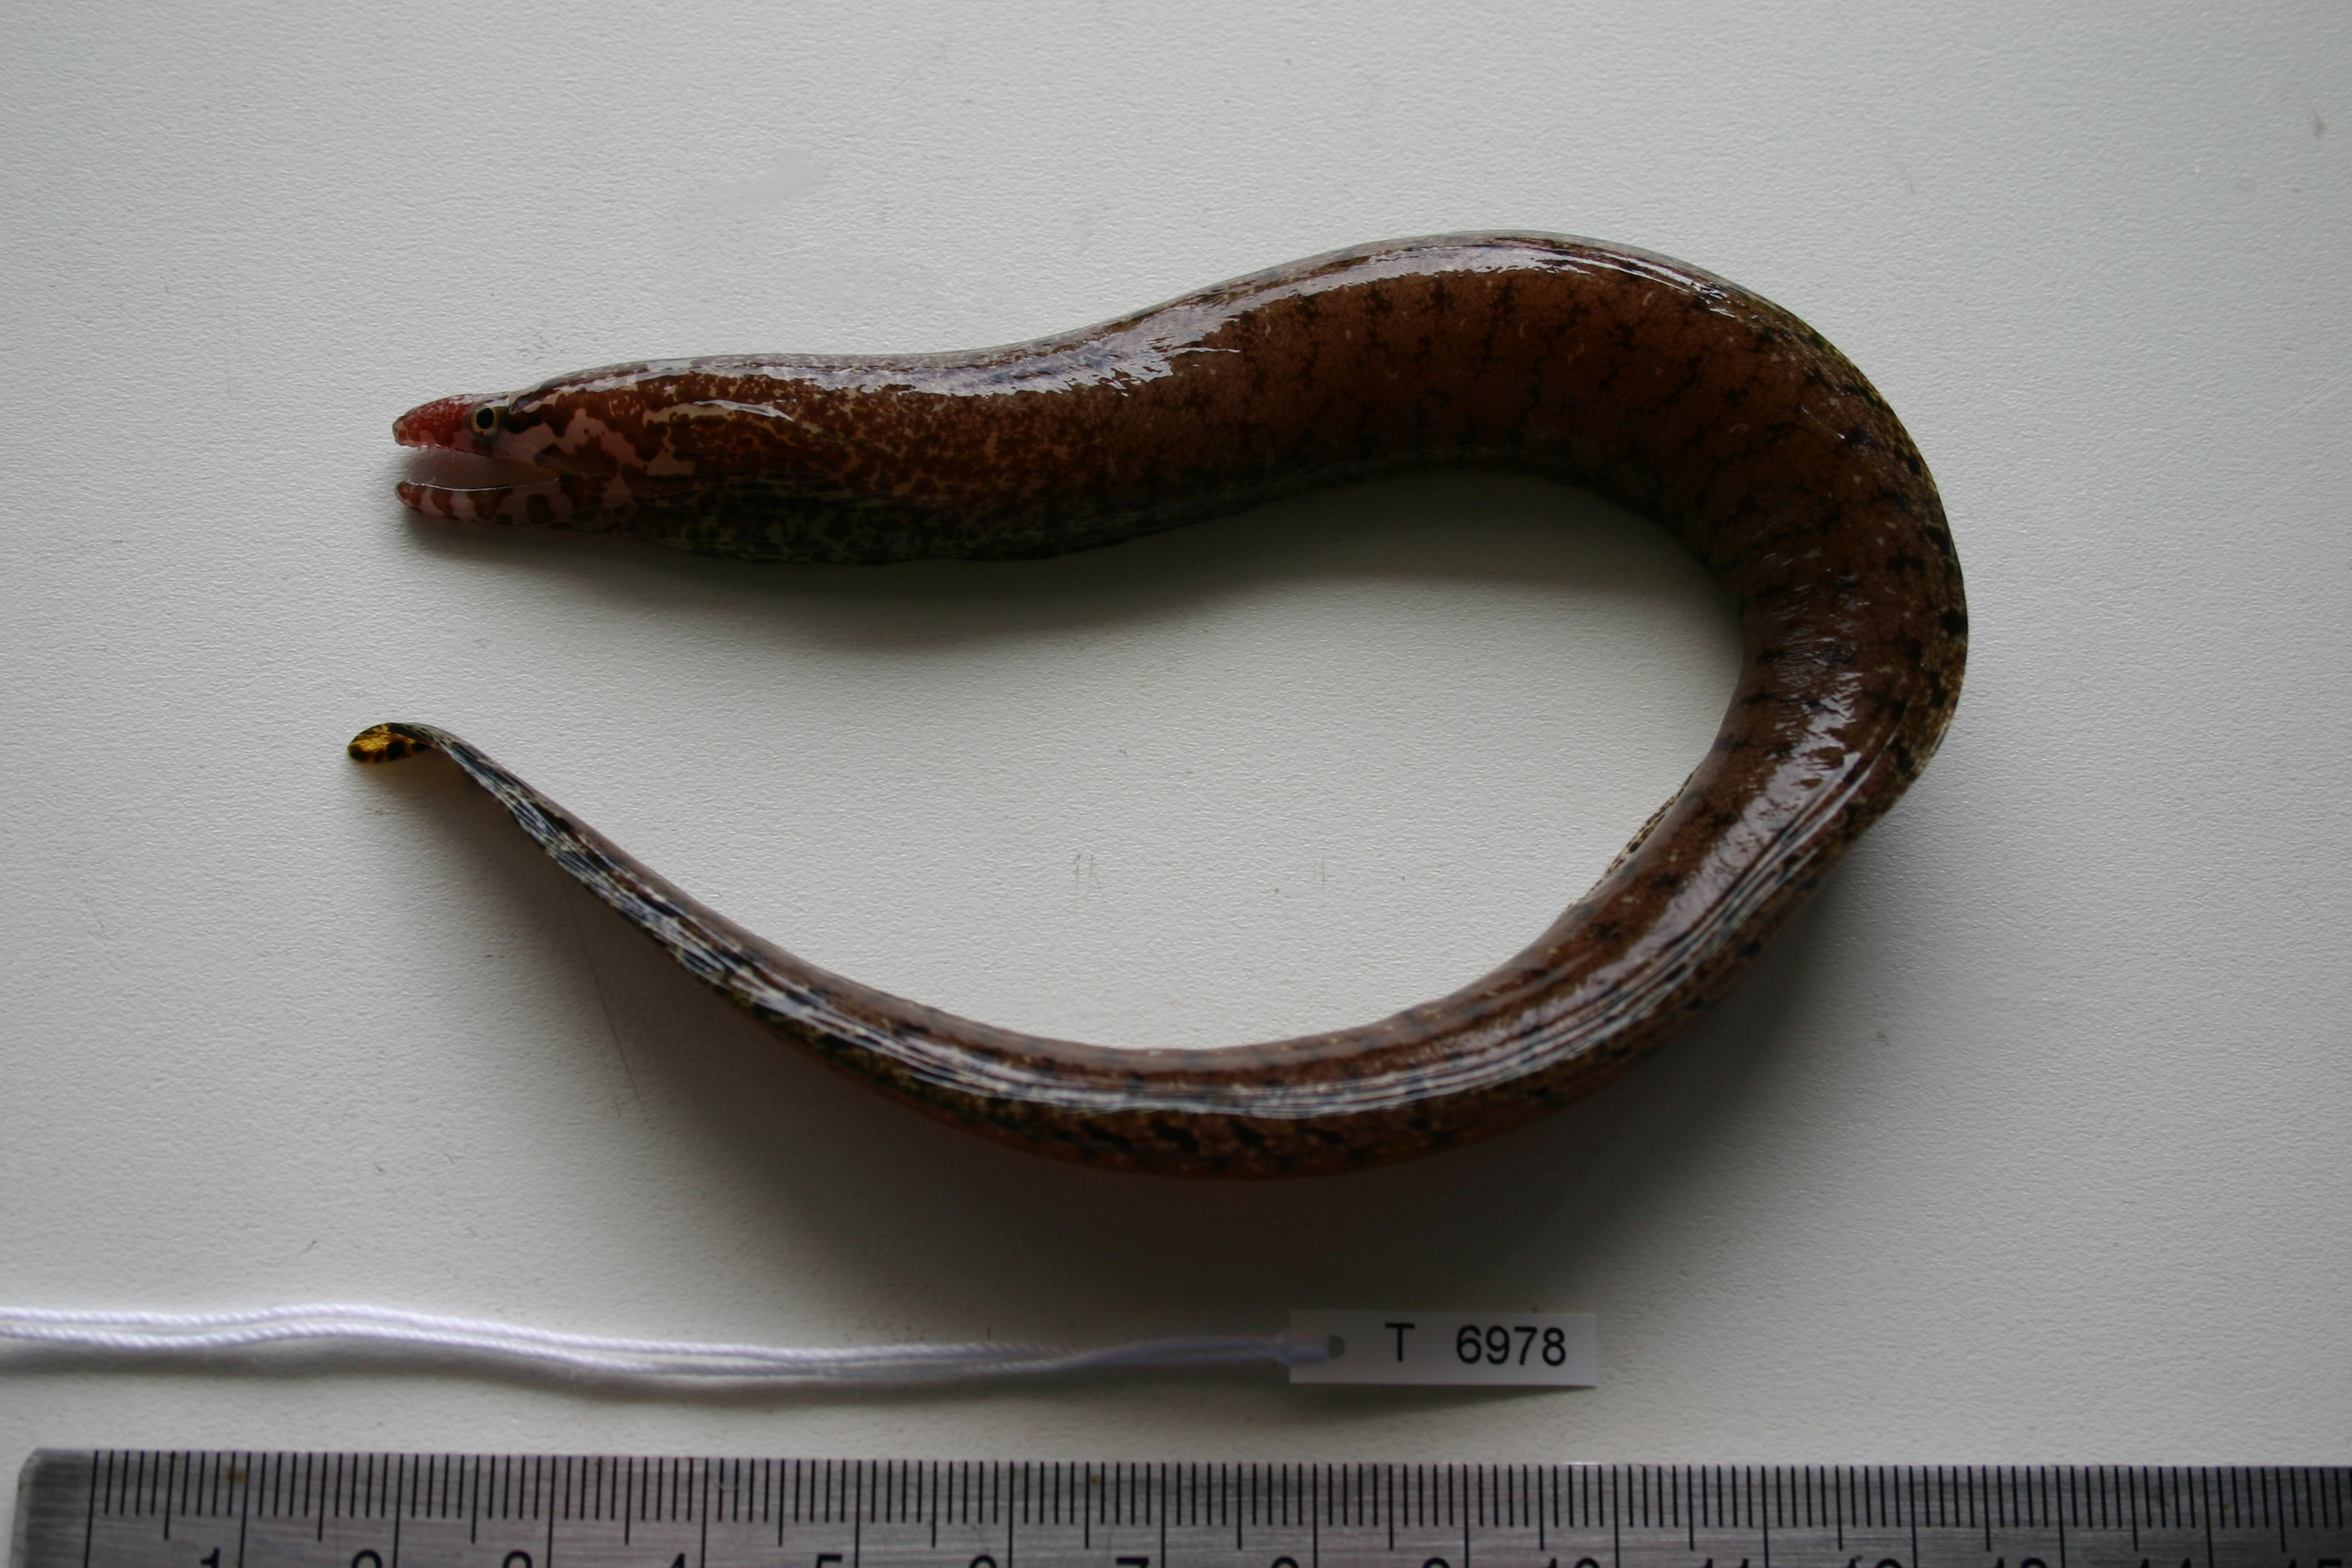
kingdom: Animalia
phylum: Chordata
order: Anguilliformes
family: Muraenidae
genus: Gymnothorax
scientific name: Gymnothorax zonipectis
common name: Bar-tail moray
